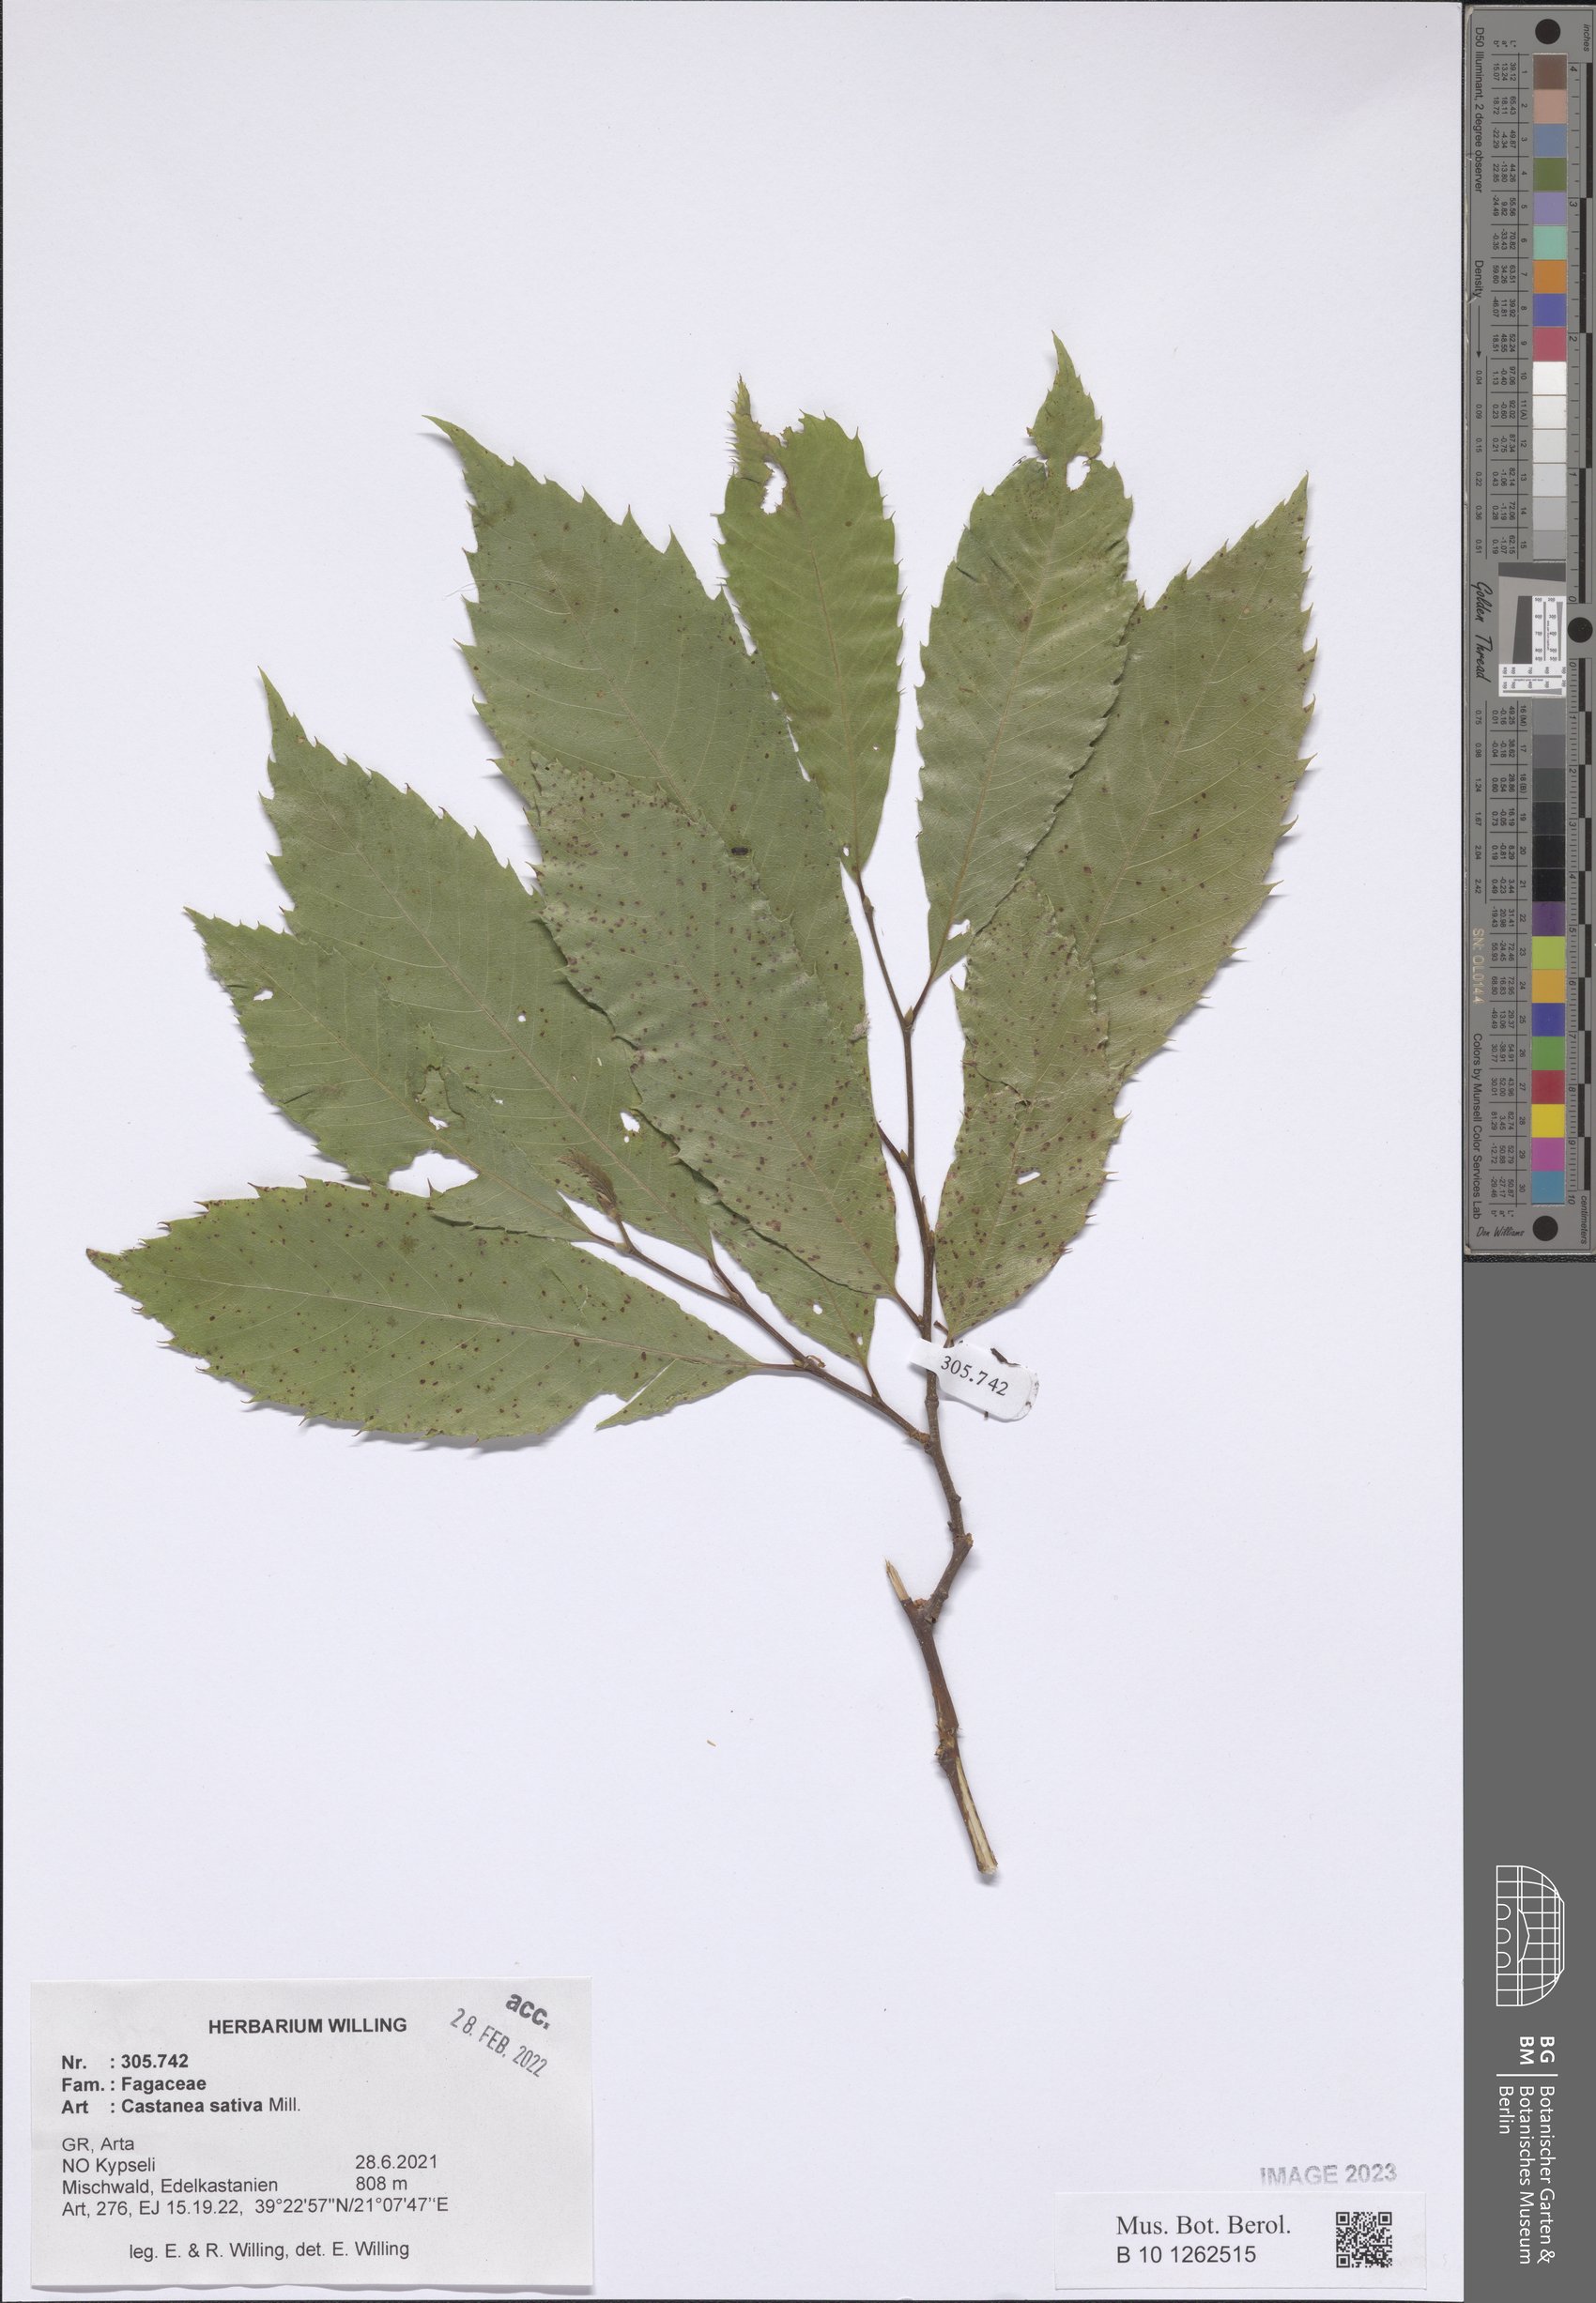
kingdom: Plantae
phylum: Tracheophyta
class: Magnoliopsida
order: Fagales
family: Fagaceae
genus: Castanea
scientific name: Castanea sativa
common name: Sweet chestnut
